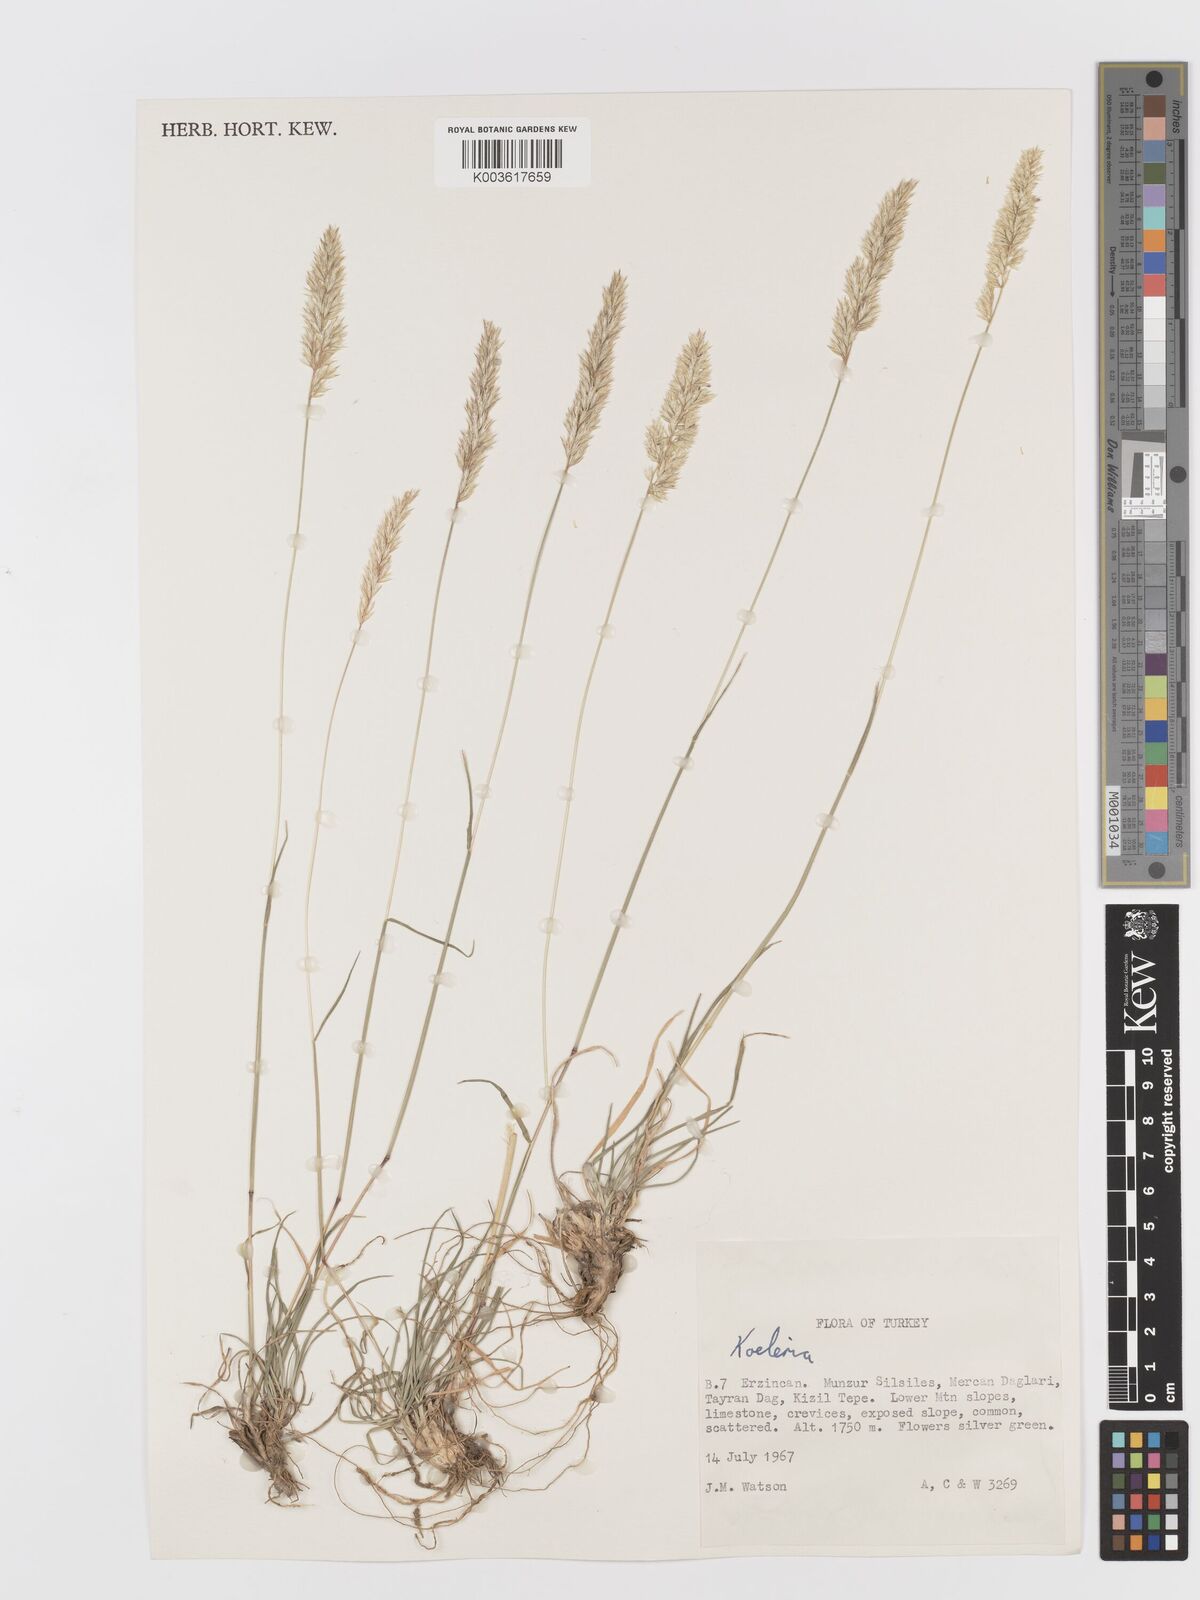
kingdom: Plantae
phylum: Tracheophyta
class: Liliopsida
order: Poales
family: Poaceae
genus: Koeleria
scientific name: Koeleria
